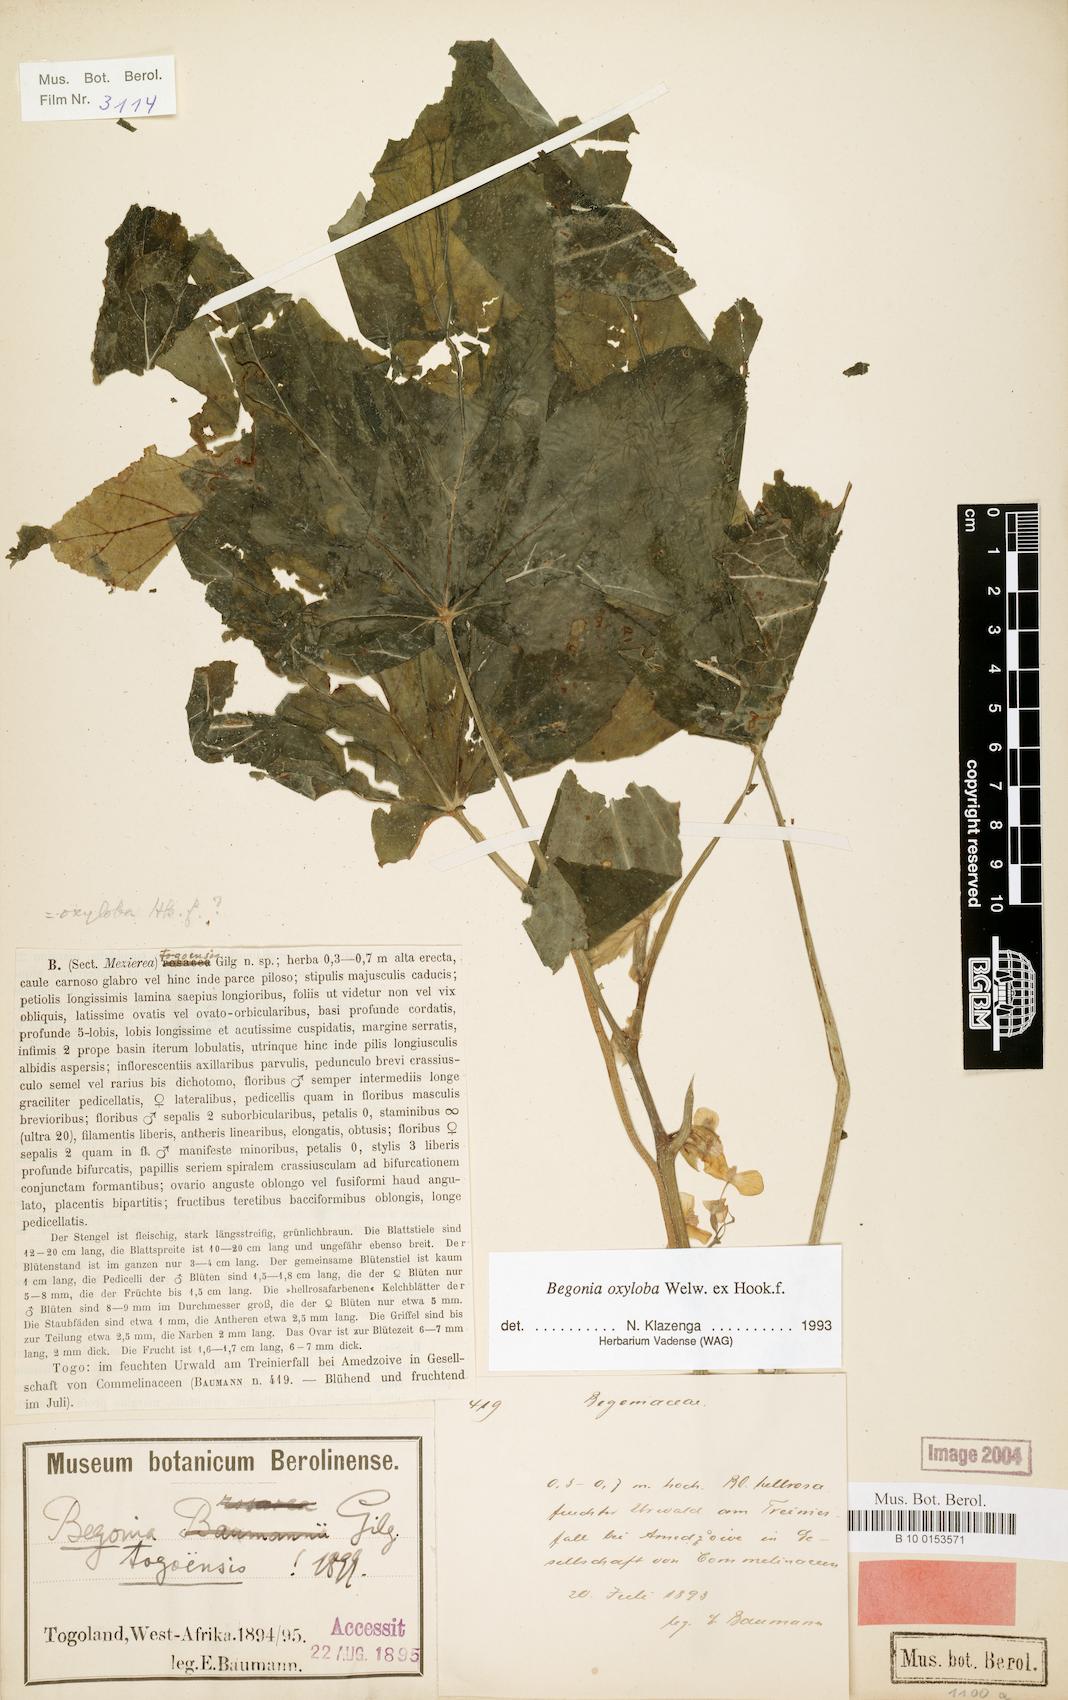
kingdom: Plantae
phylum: Tracheophyta
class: Magnoliopsida
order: Cucurbitales
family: Begoniaceae
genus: Begonia
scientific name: Begonia oxyloba
